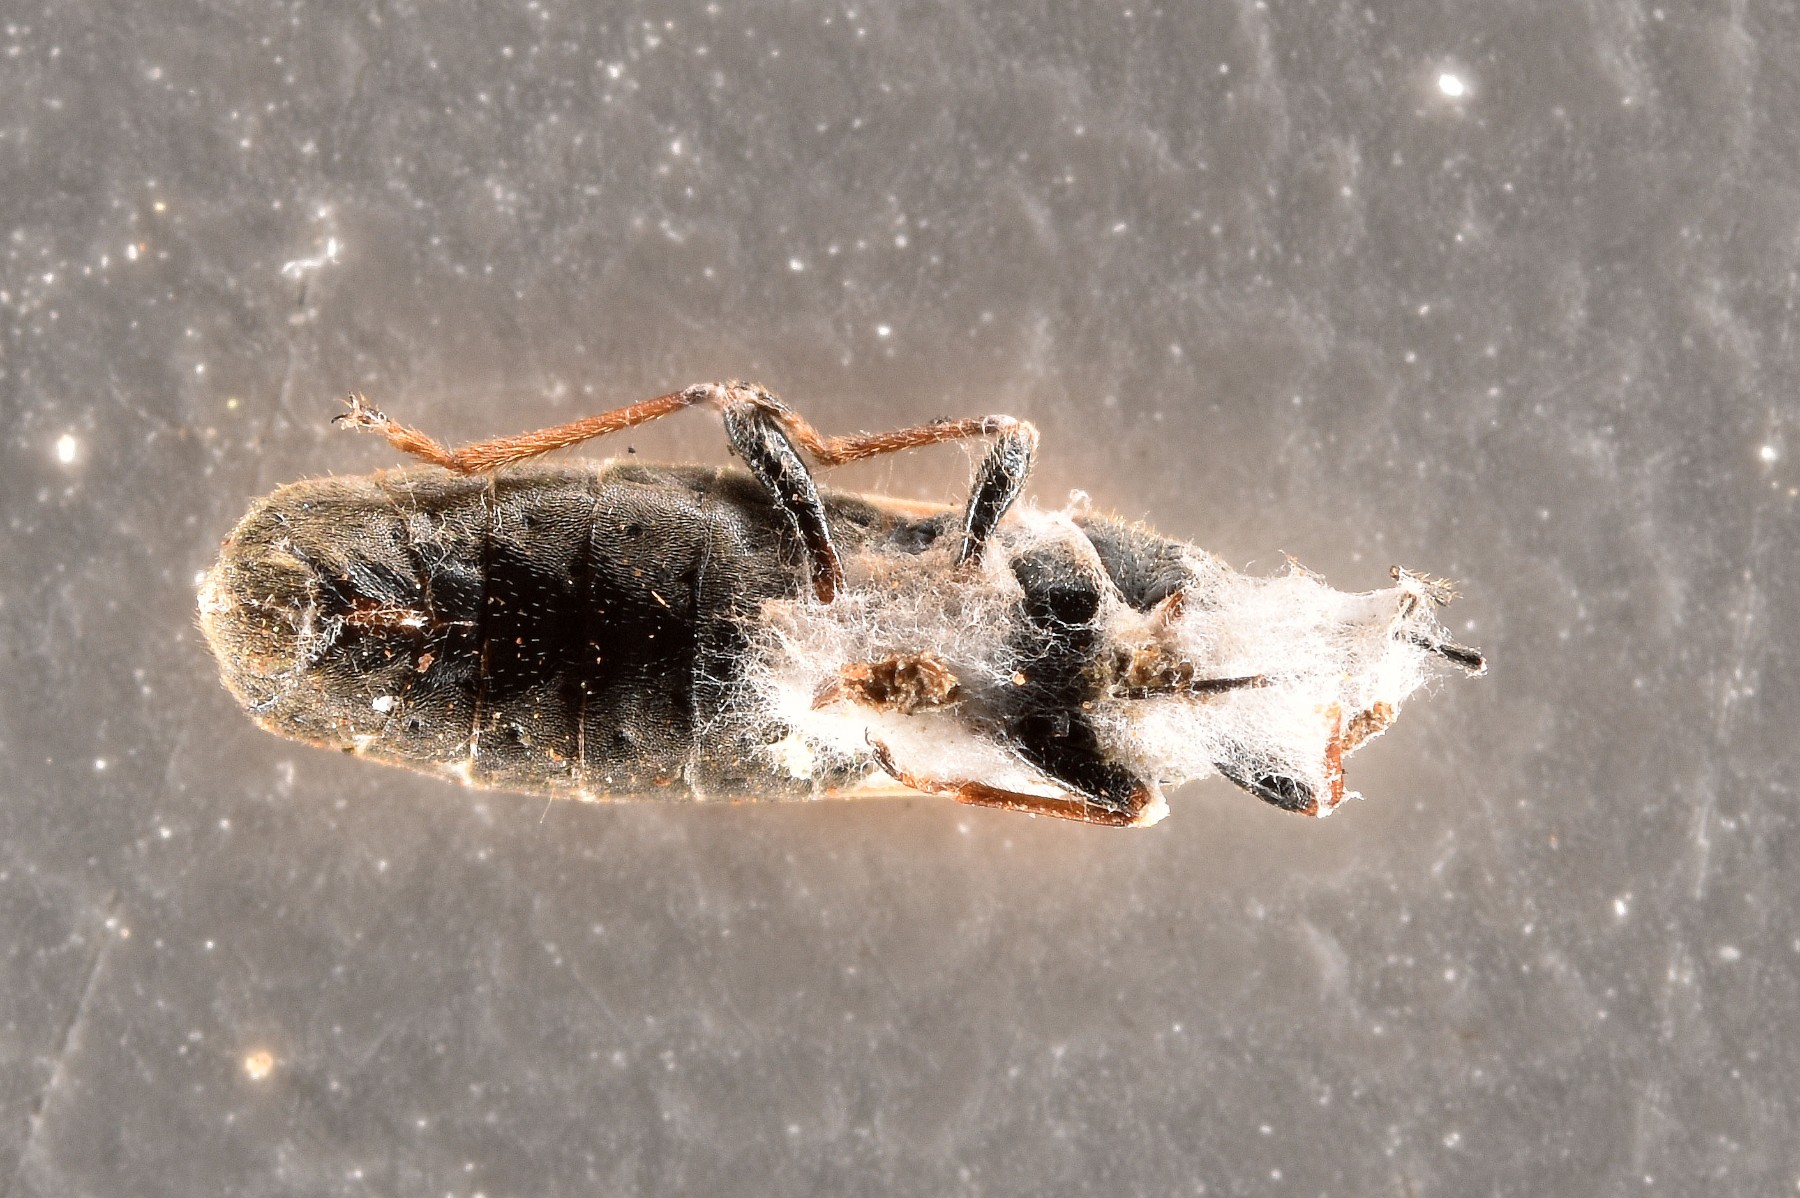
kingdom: Fungi
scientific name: Fungi
